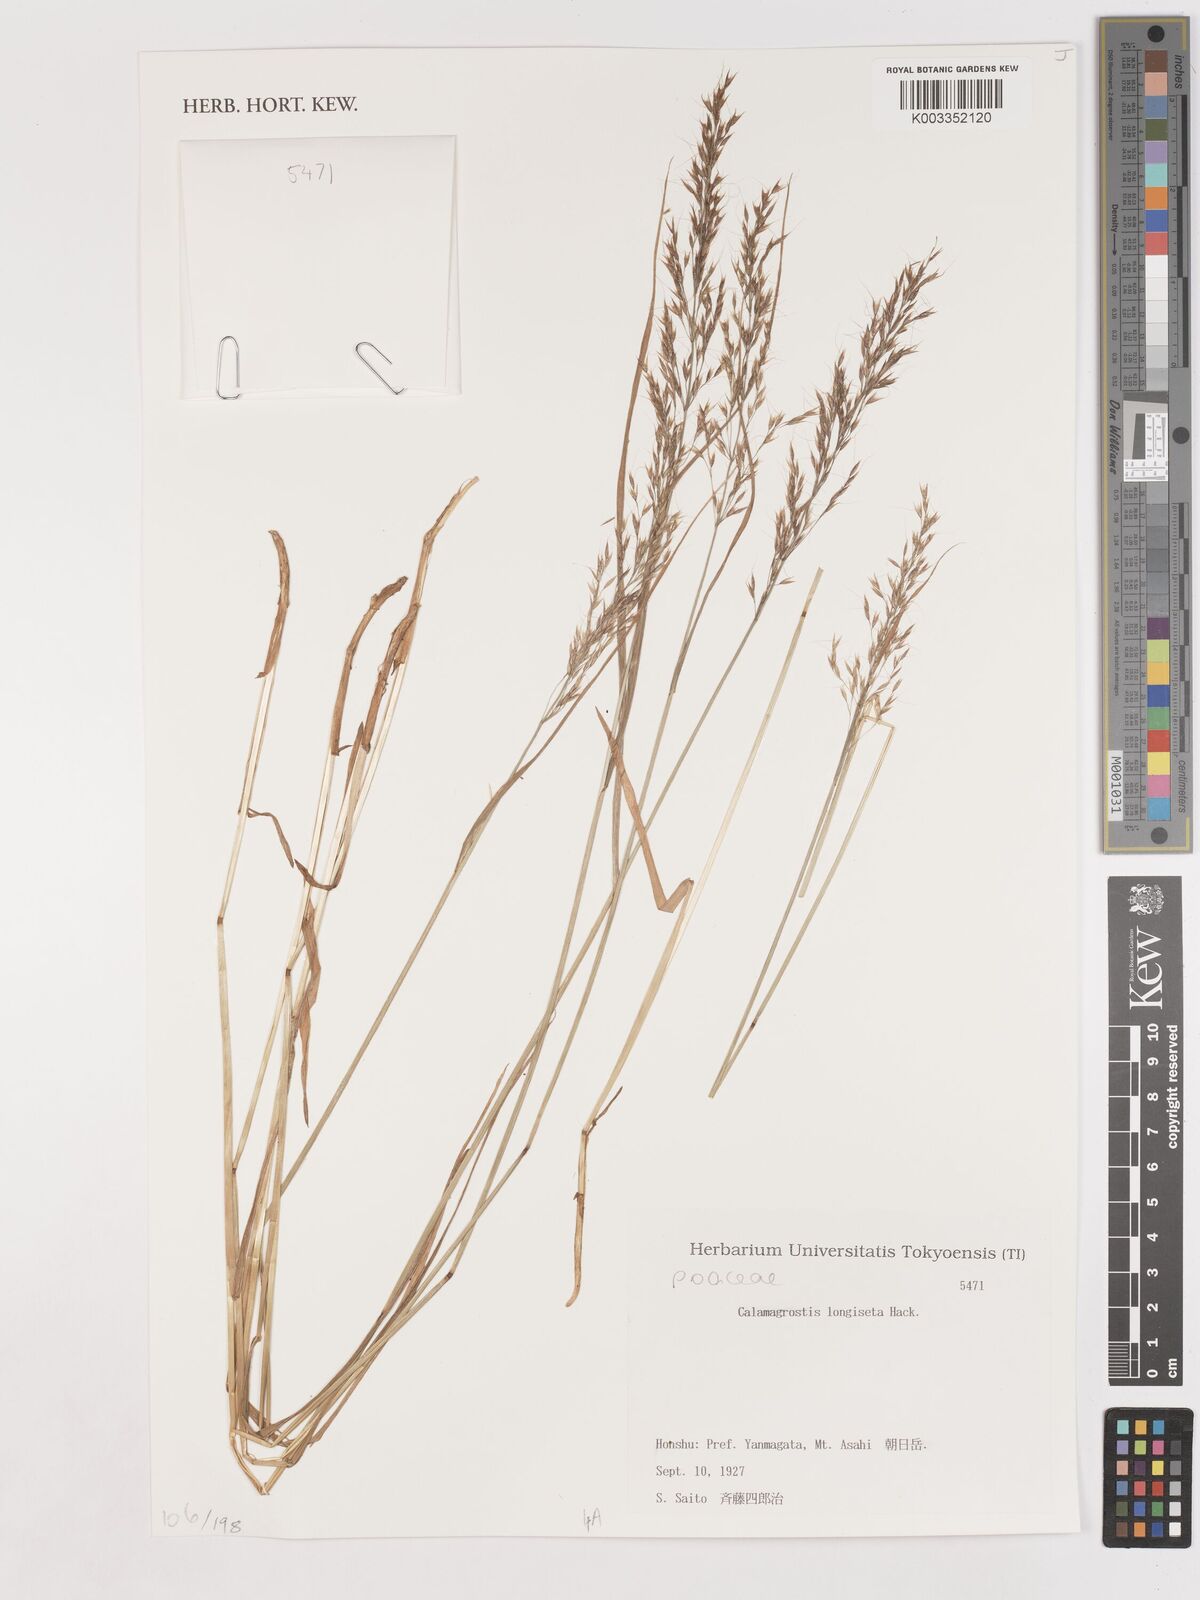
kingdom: Plantae
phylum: Tracheophyta
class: Liliopsida
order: Poales
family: Poaceae
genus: Calamagrostis
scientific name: Calamagrostis longiseta
